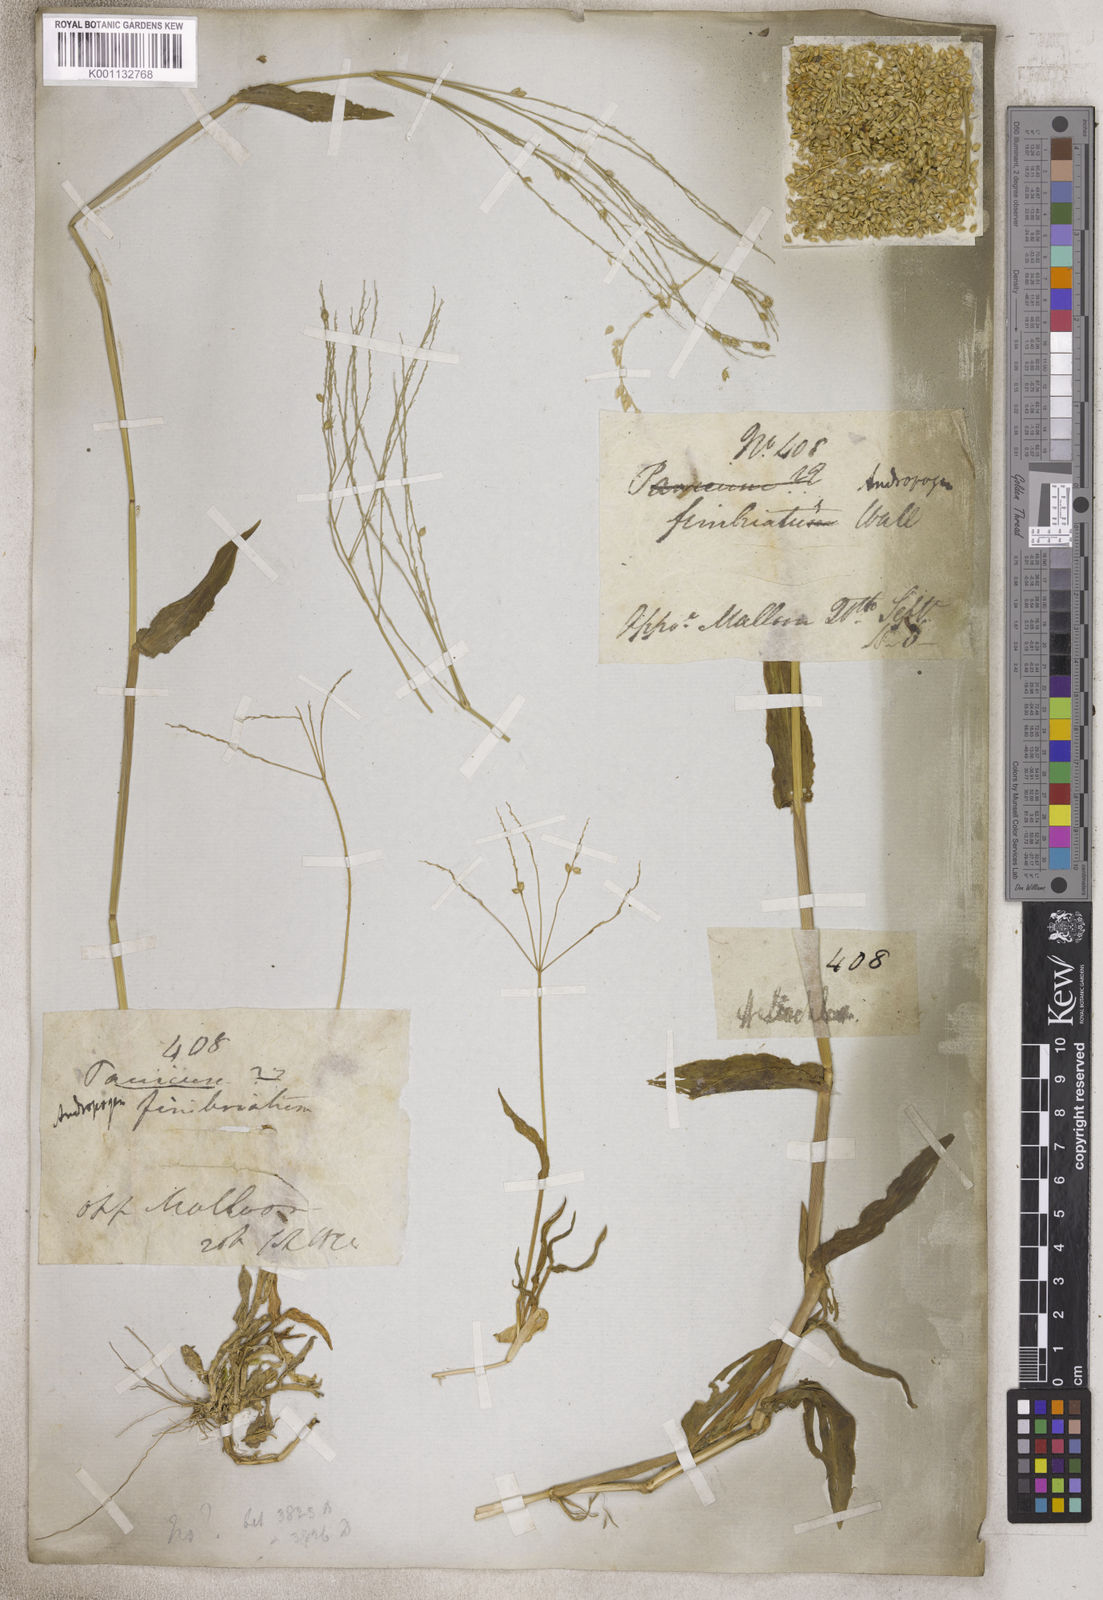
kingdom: Plantae
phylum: Tracheophyta
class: Liliopsida
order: Poales
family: Poaceae
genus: Panicum
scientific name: Panicum
